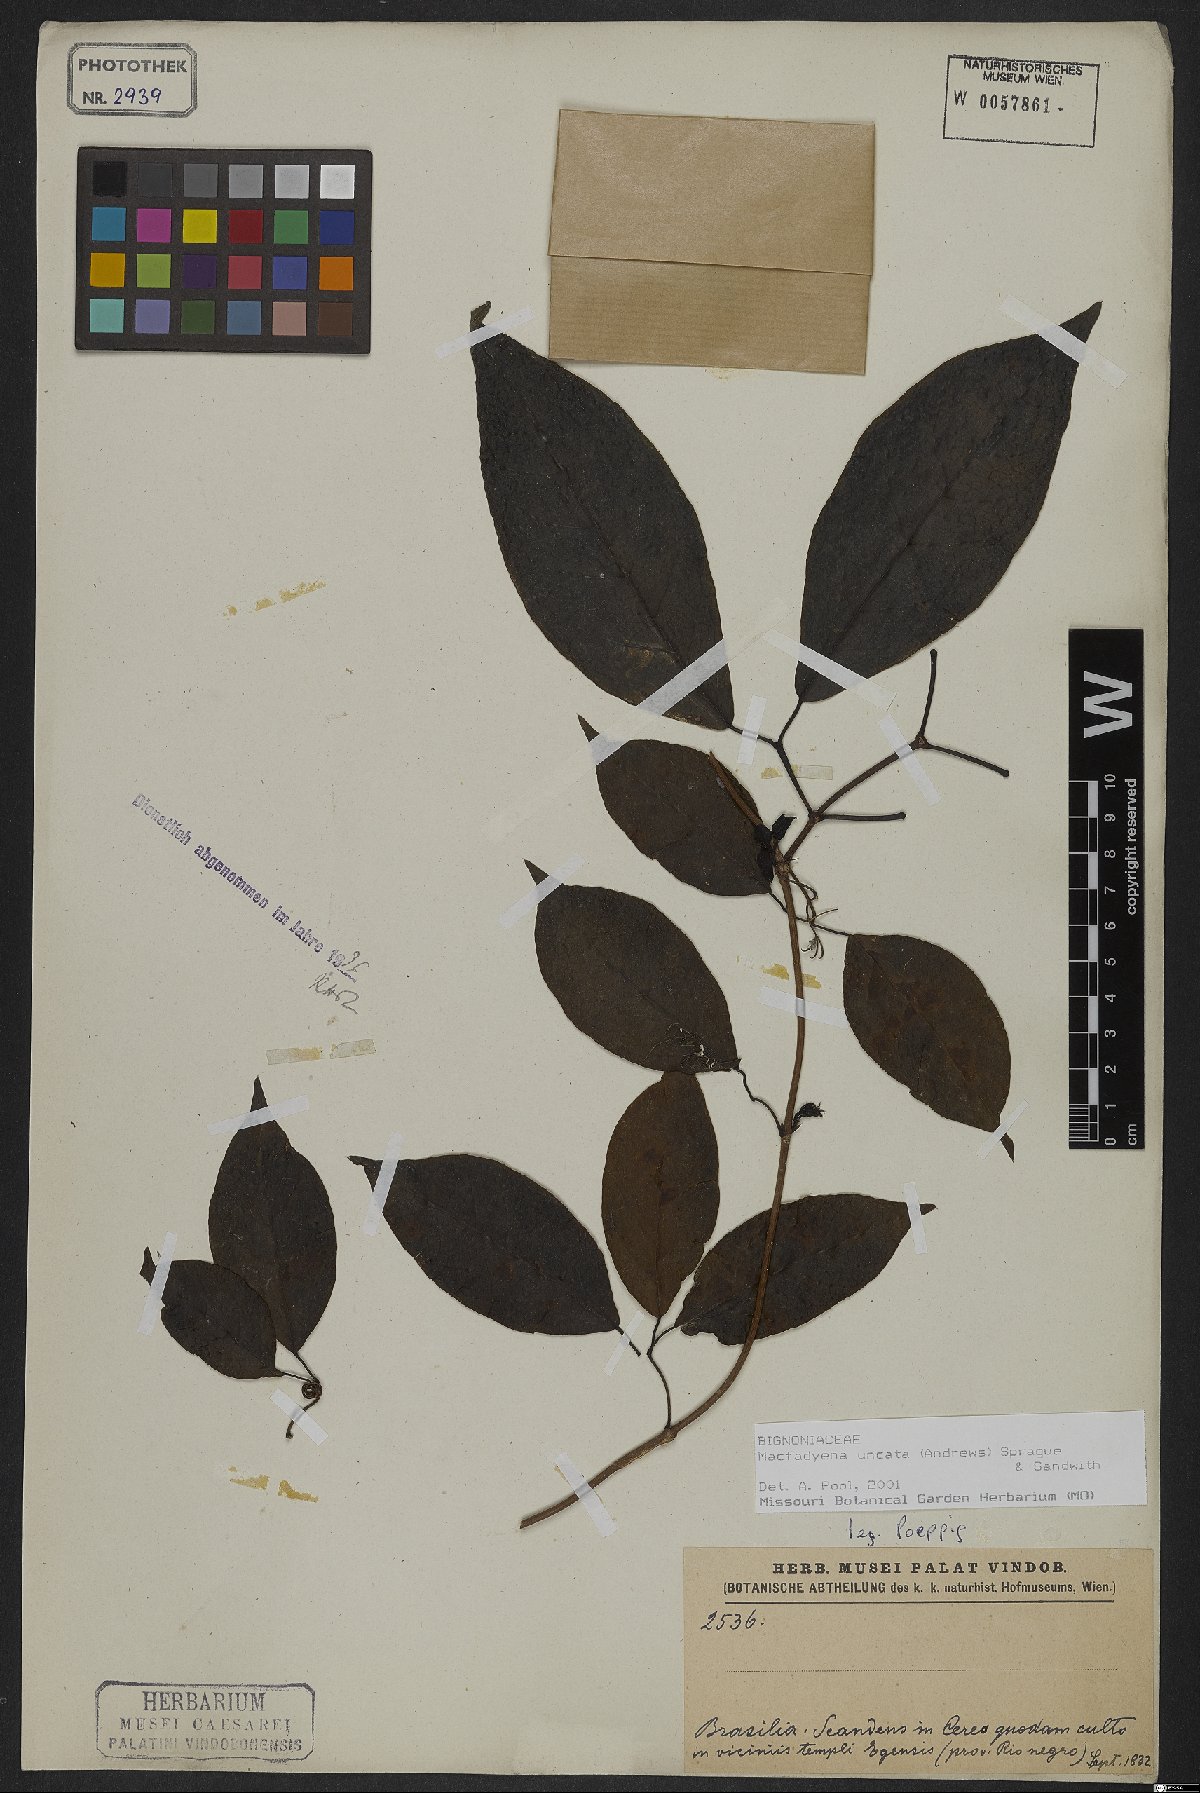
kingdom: Plantae
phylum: Tracheophyta
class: Magnoliopsida
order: Lamiales
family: Bignoniaceae
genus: Dolichandra
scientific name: Dolichandra uncata
